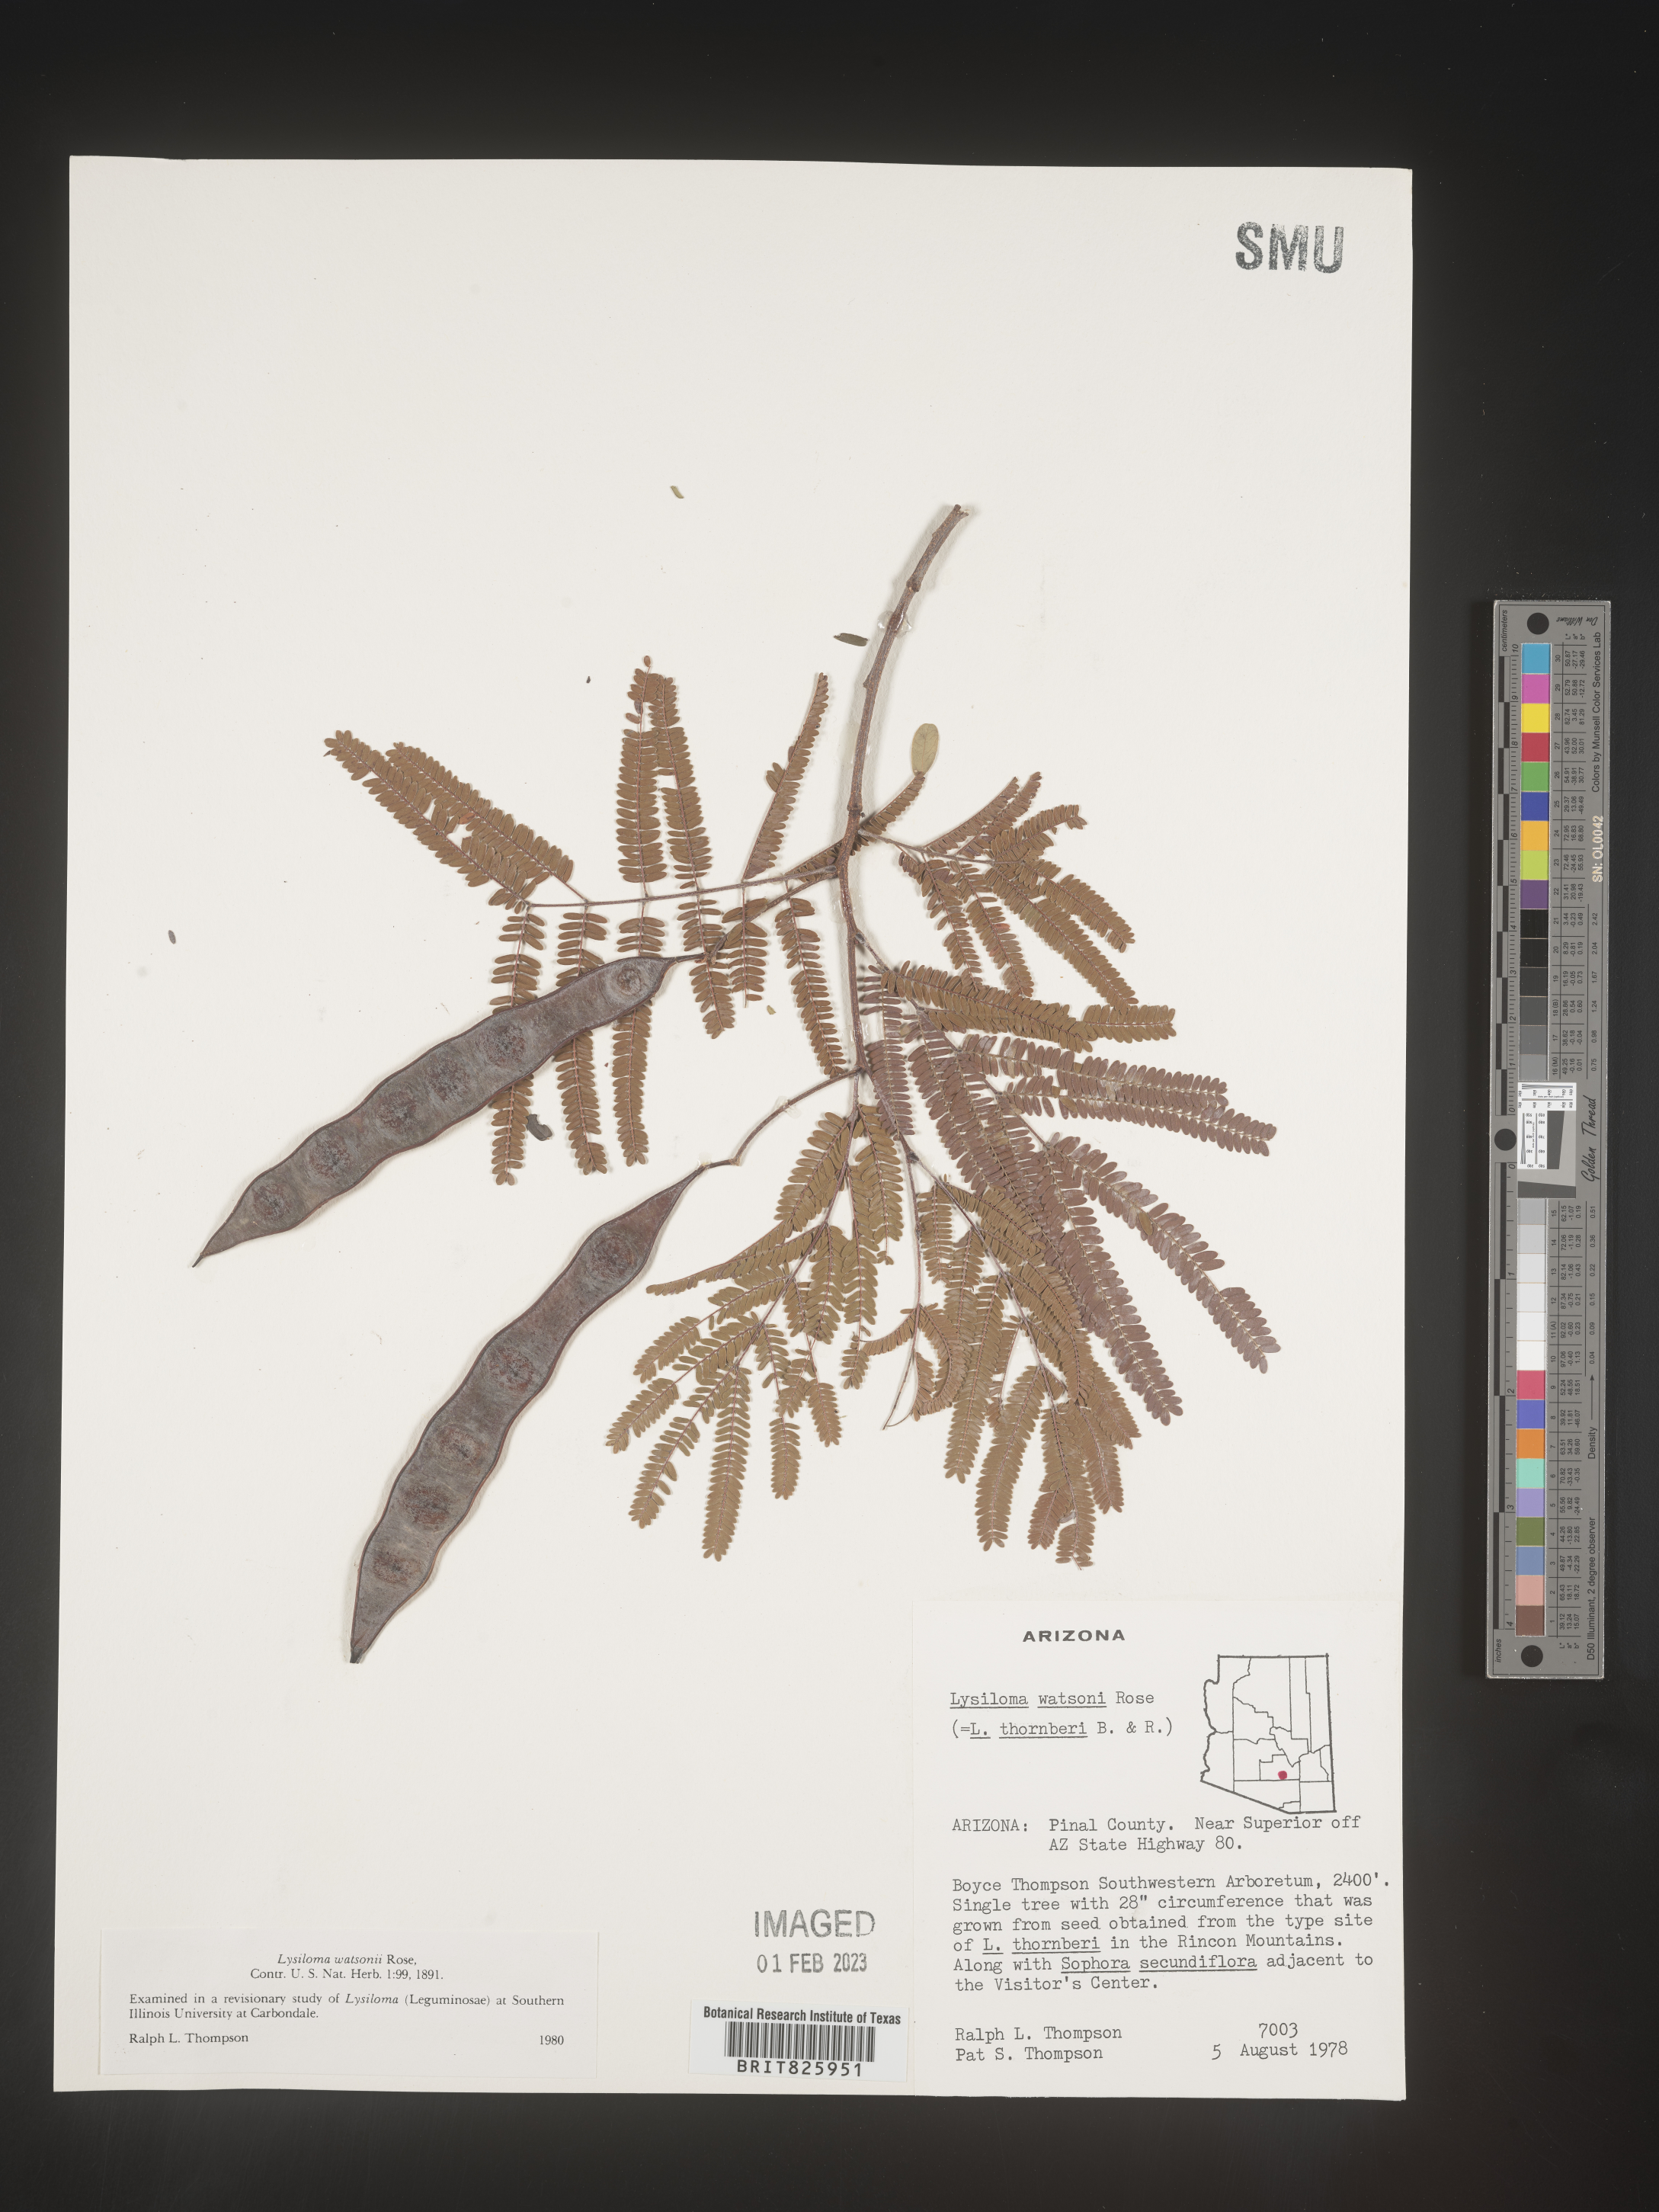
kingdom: Plantae
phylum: Tracheophyta
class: Magnoliopsida
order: Fabales
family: Fabaceae
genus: Lysiloma
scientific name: Lysiloma
